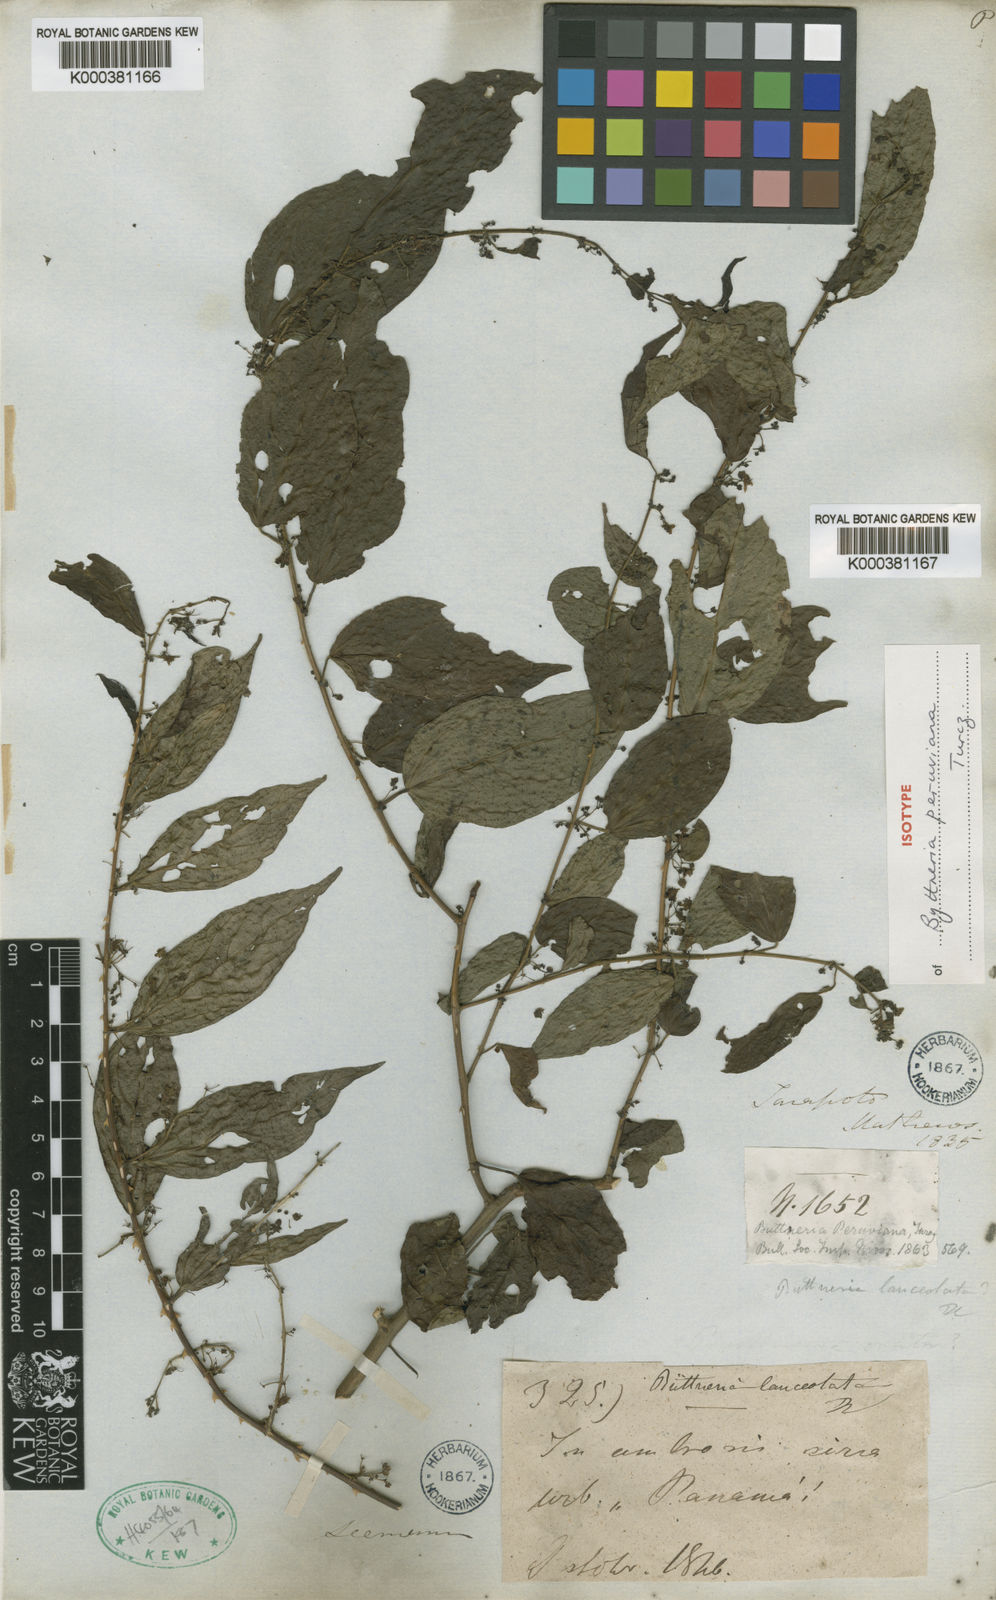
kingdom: Plantae
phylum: Tracheophyta
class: Magnoliopsida
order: Malvales
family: Malvaceae
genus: Byttneria
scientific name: Byttneria aculeata
